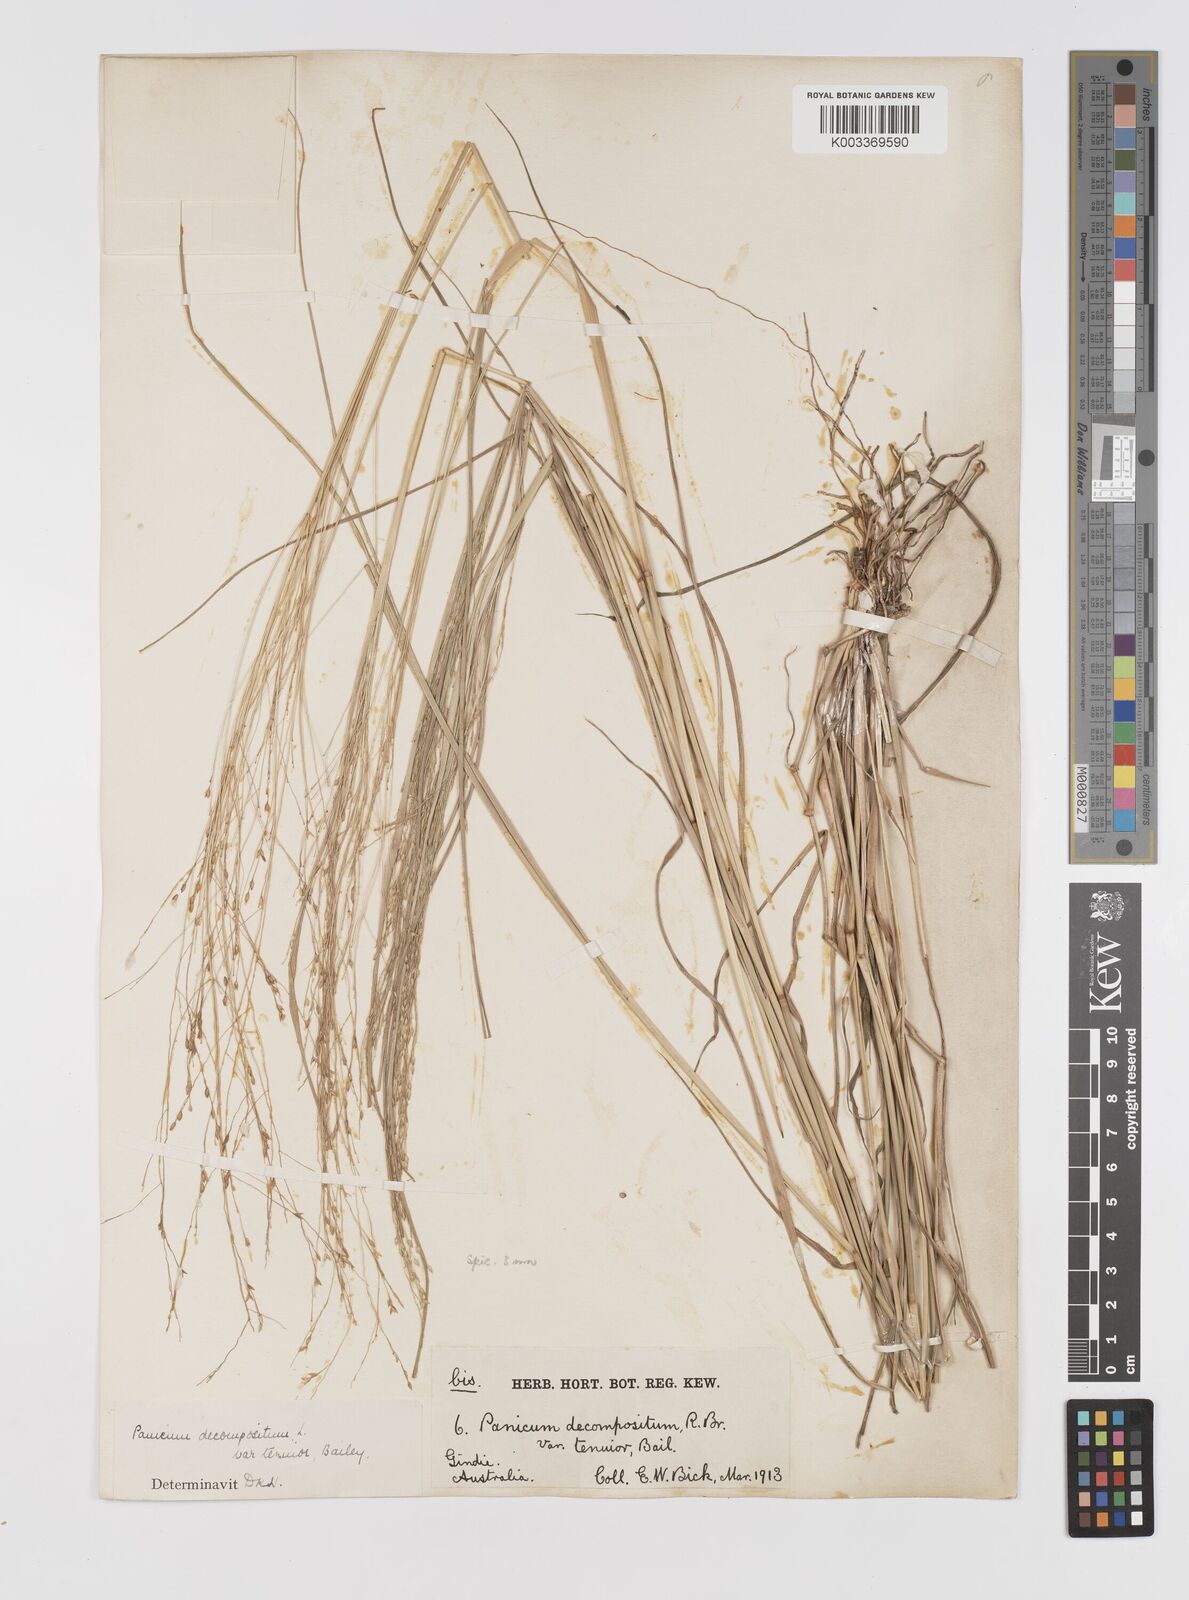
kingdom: Plantae
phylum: Tracheophyta
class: Liliopsida
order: Poales
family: Poaceae
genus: Panicum
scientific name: Panicum decompositum
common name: Australian millet
